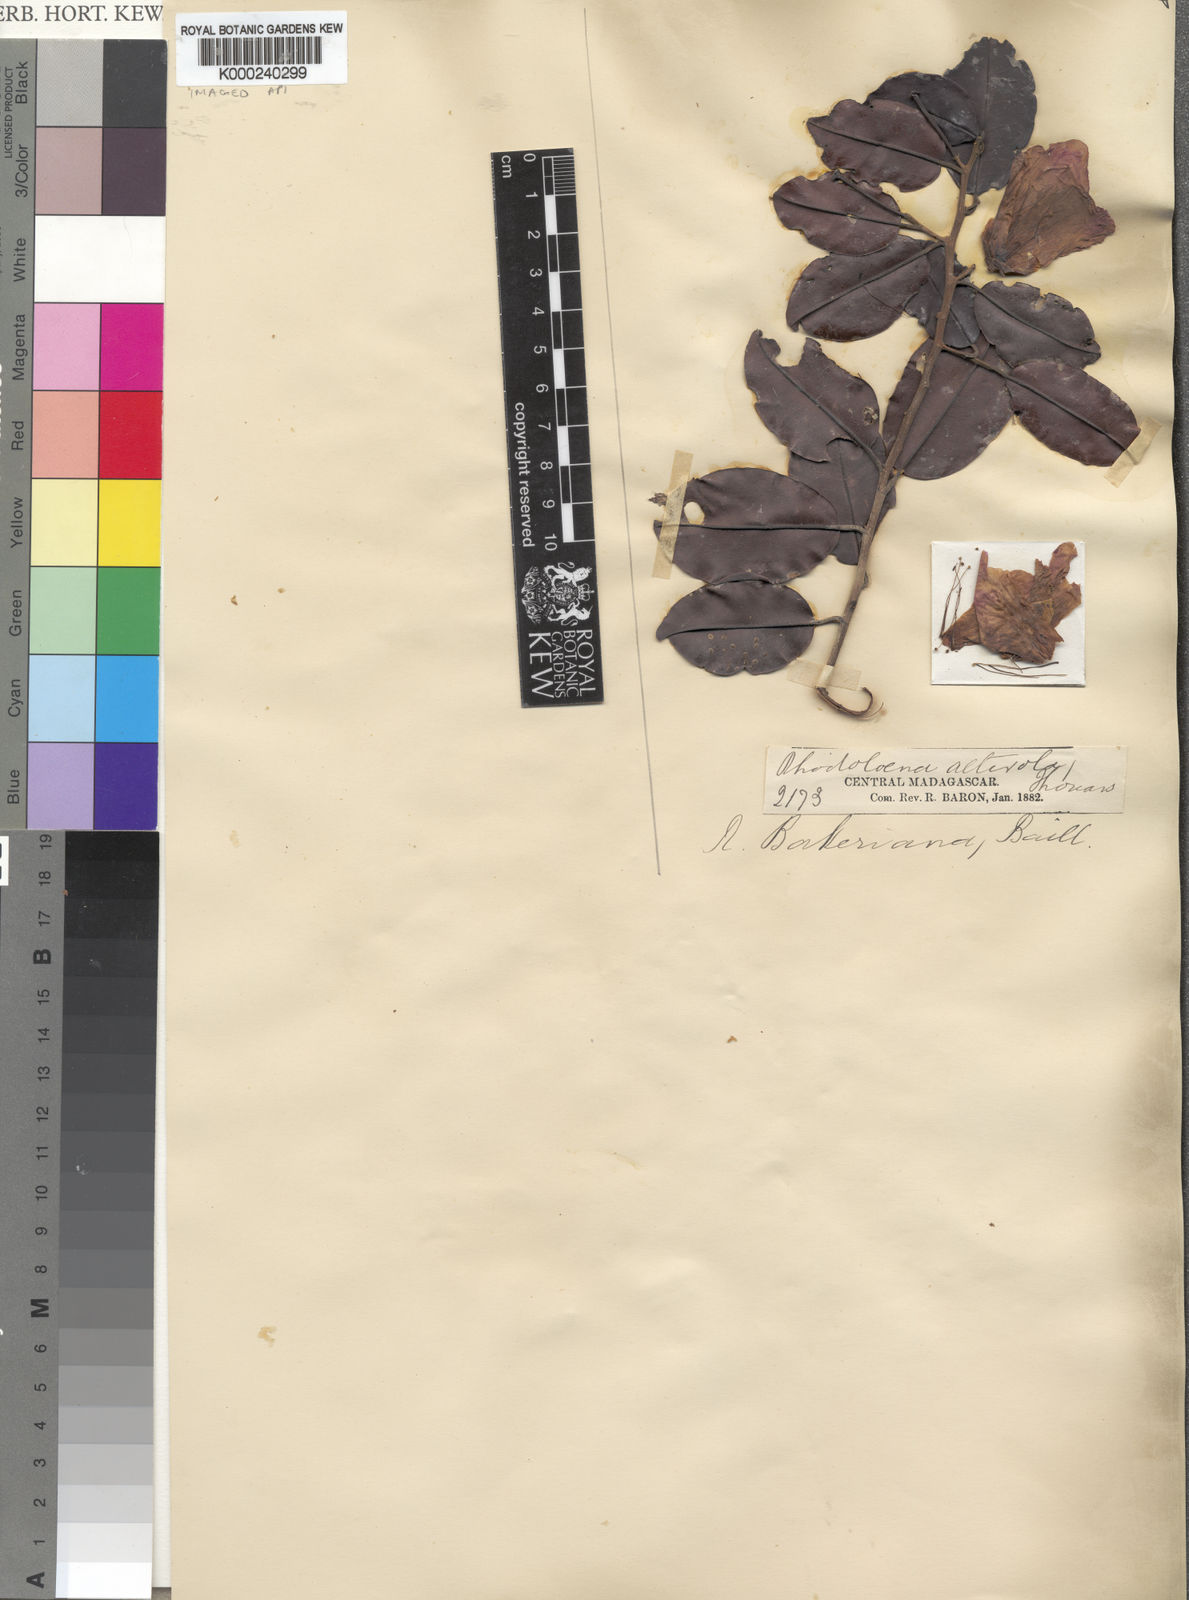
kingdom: Plantae
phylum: Tracheophyta
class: Magnoliopsida
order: Malvales
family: Sarcolaenaceae
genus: Rhodolaena
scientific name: Rhodolaena bakeriana
